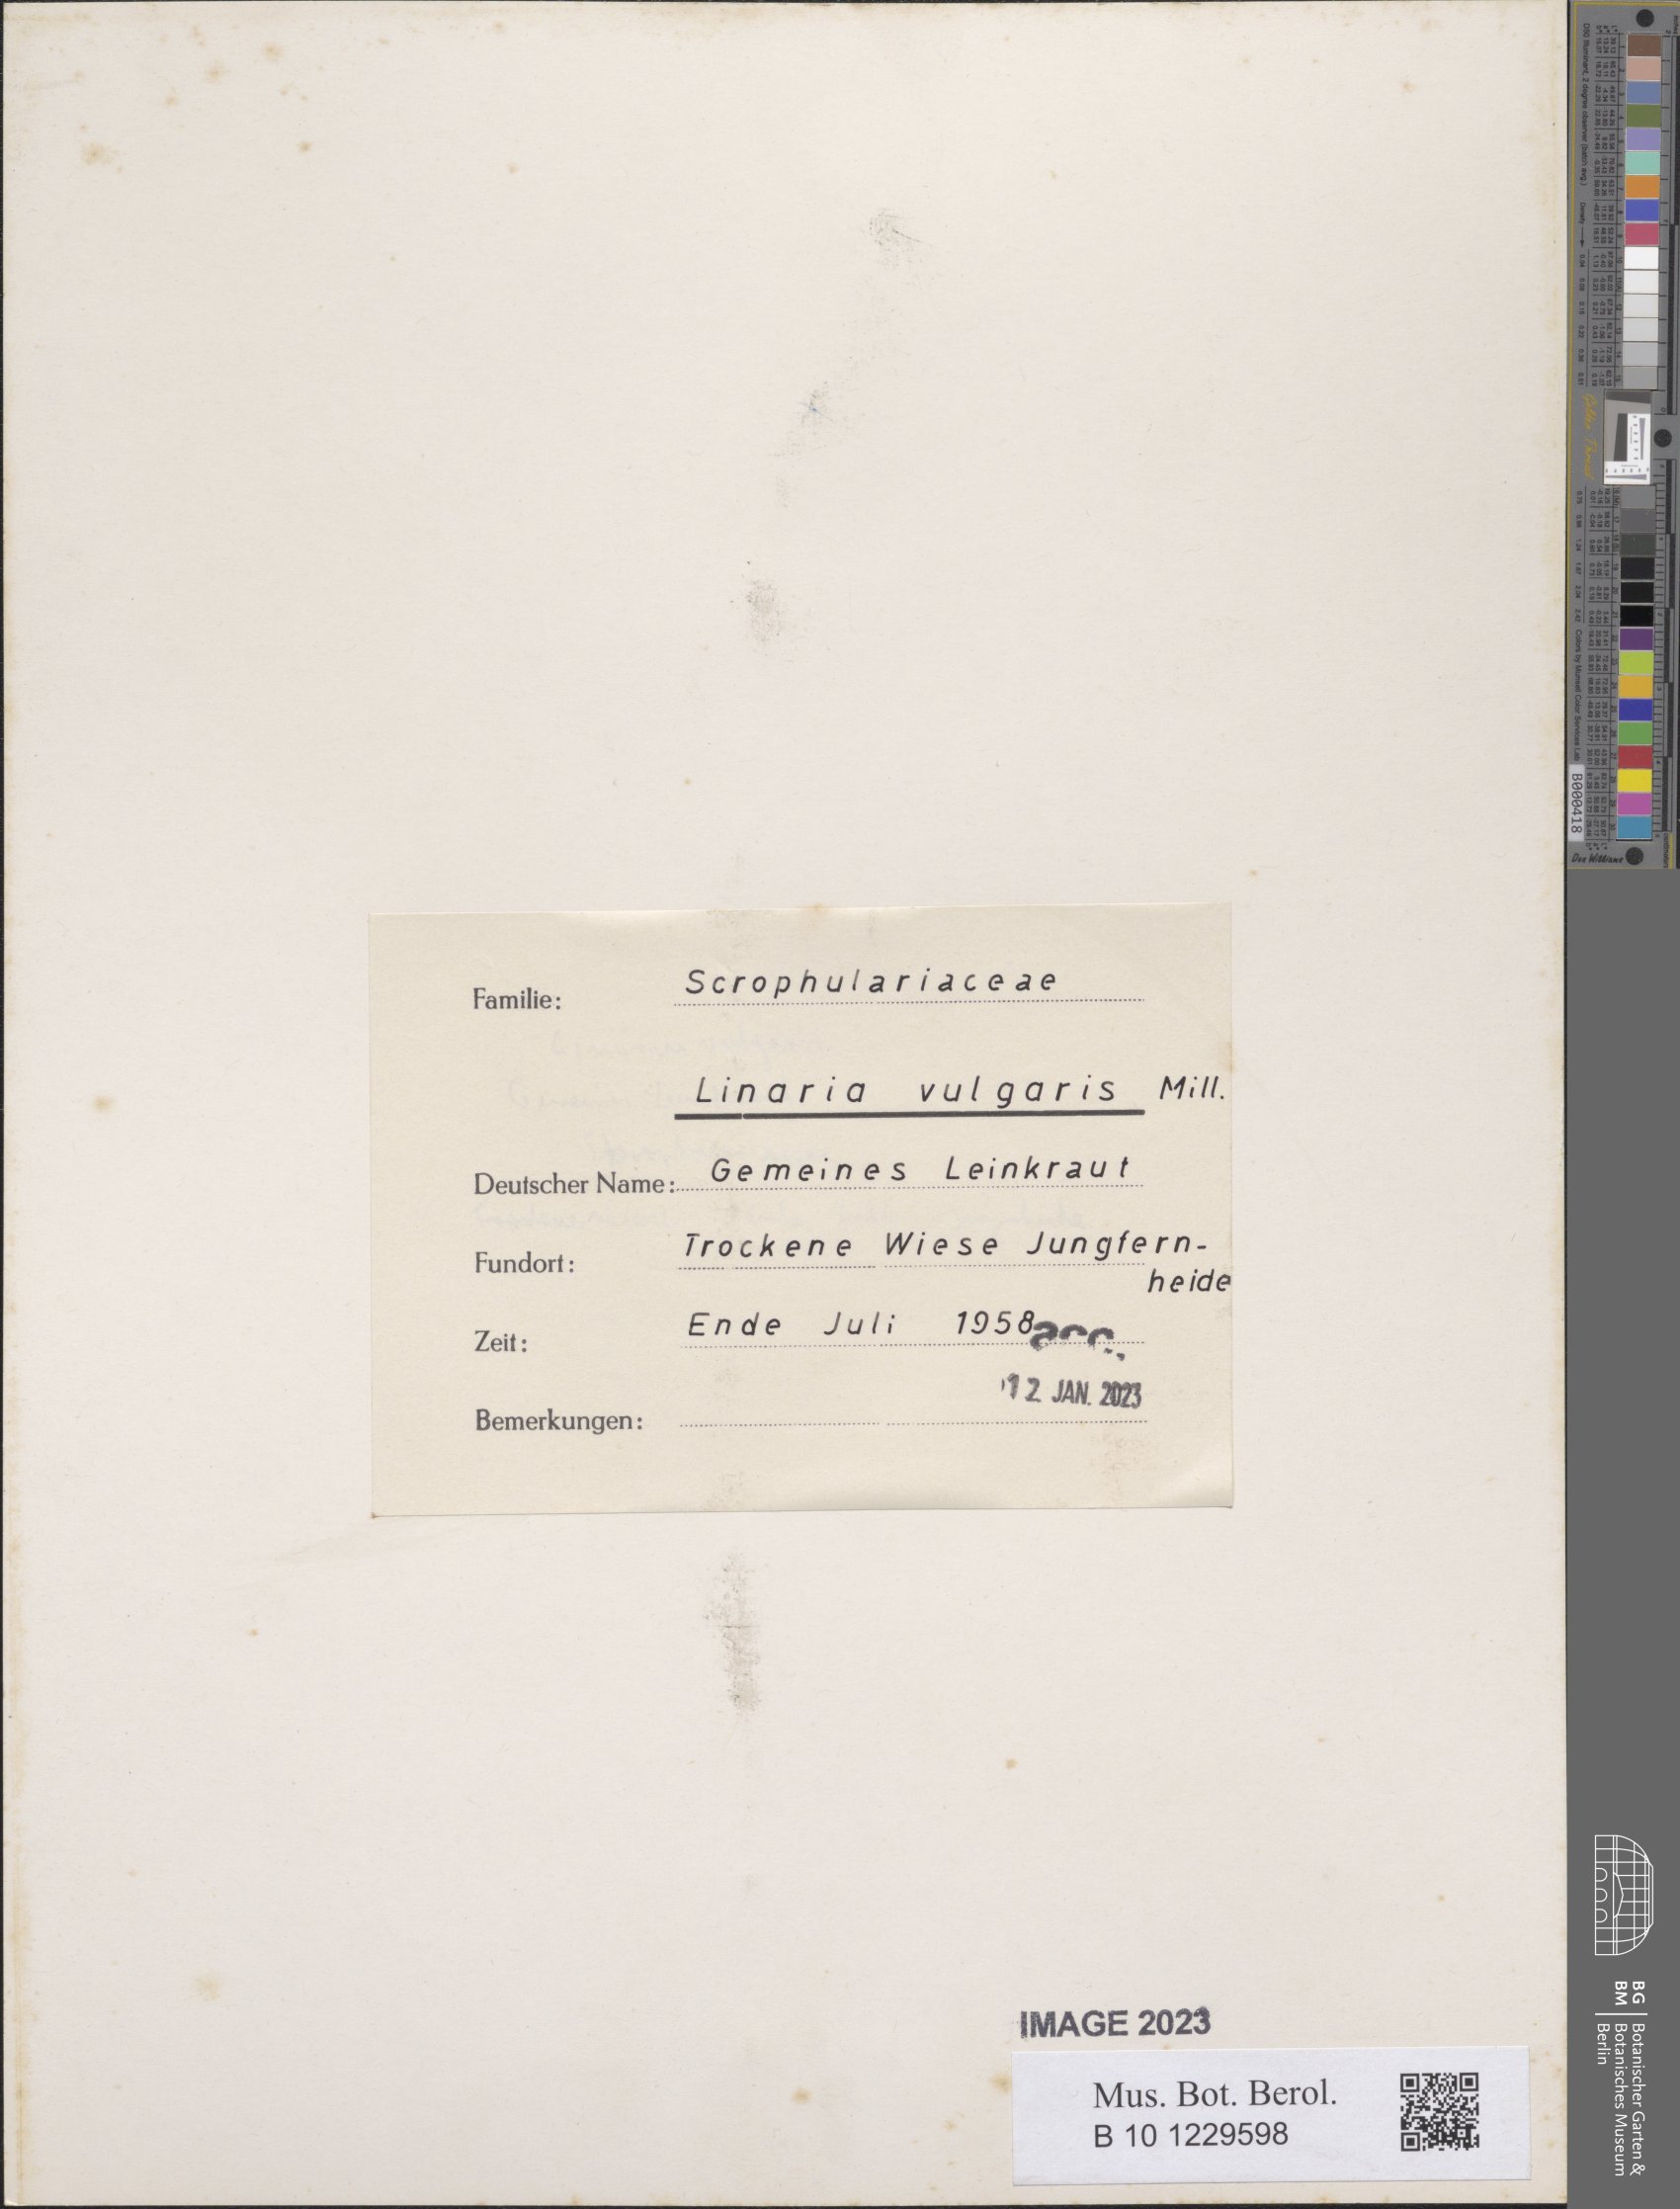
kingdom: Plantae
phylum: Tracheophyta
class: Magnoliopsida
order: Lamiales
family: Plantaginaceae
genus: Linaria
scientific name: Linaria vulgaris
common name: Butter and eggs
